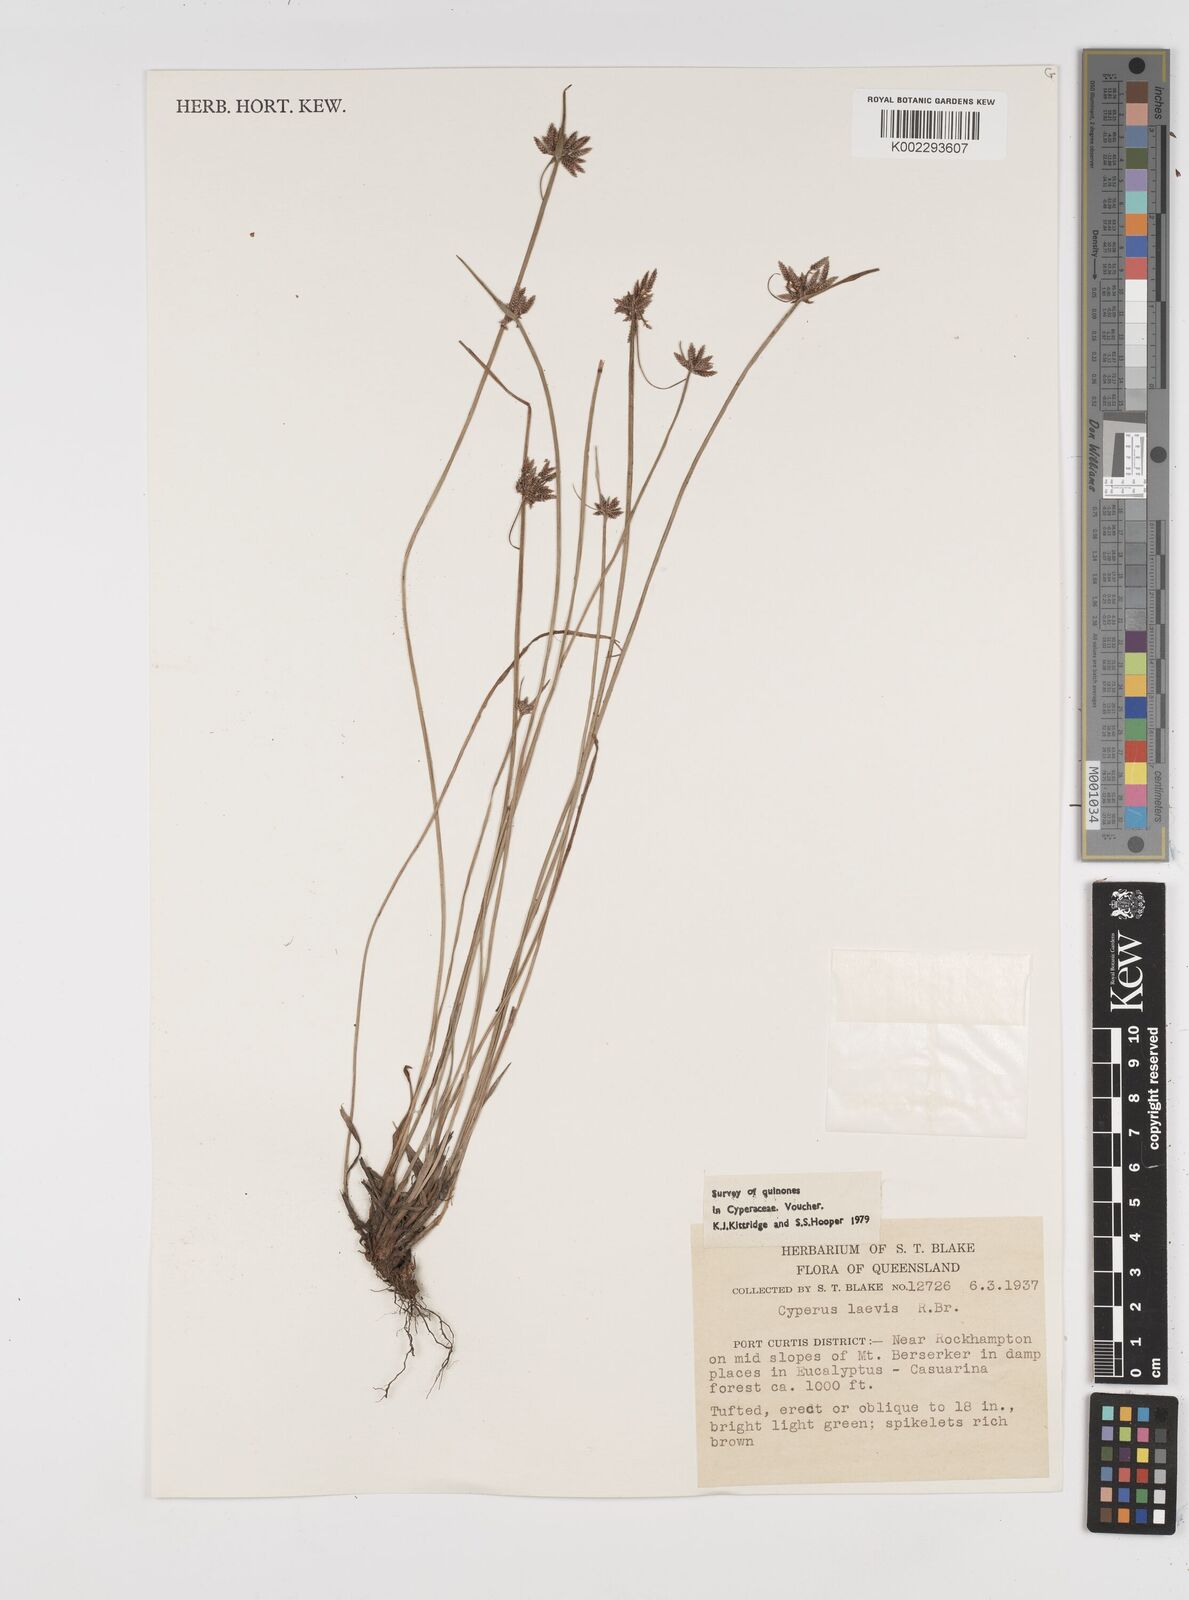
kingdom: Plantae
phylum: Tracheophyta
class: Liliopsida
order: Poales
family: Cyperaceae
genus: Cyperus
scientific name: Cyperus laevis
